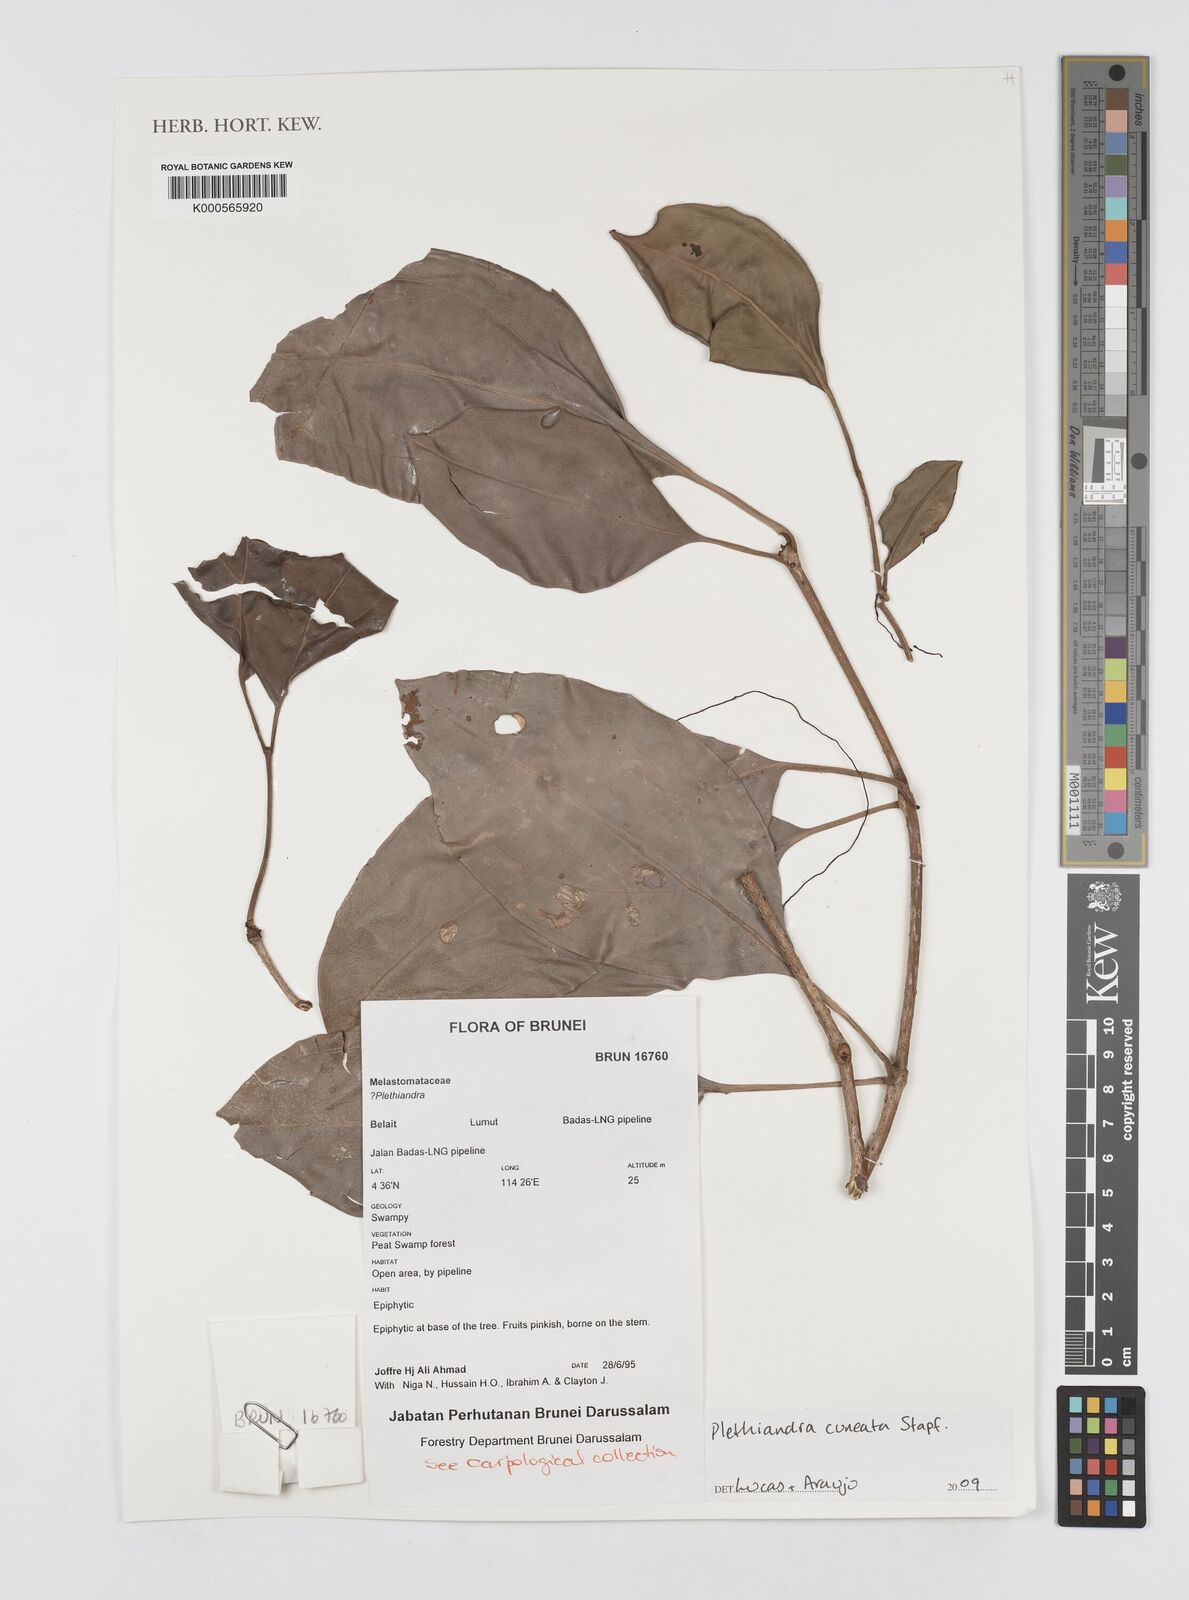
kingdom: Plantae
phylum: Tracheophyta
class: Magnoliopsida
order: Myrtales
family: Melastomataceae
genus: Plethiandra
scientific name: Plethiandra cuneata
